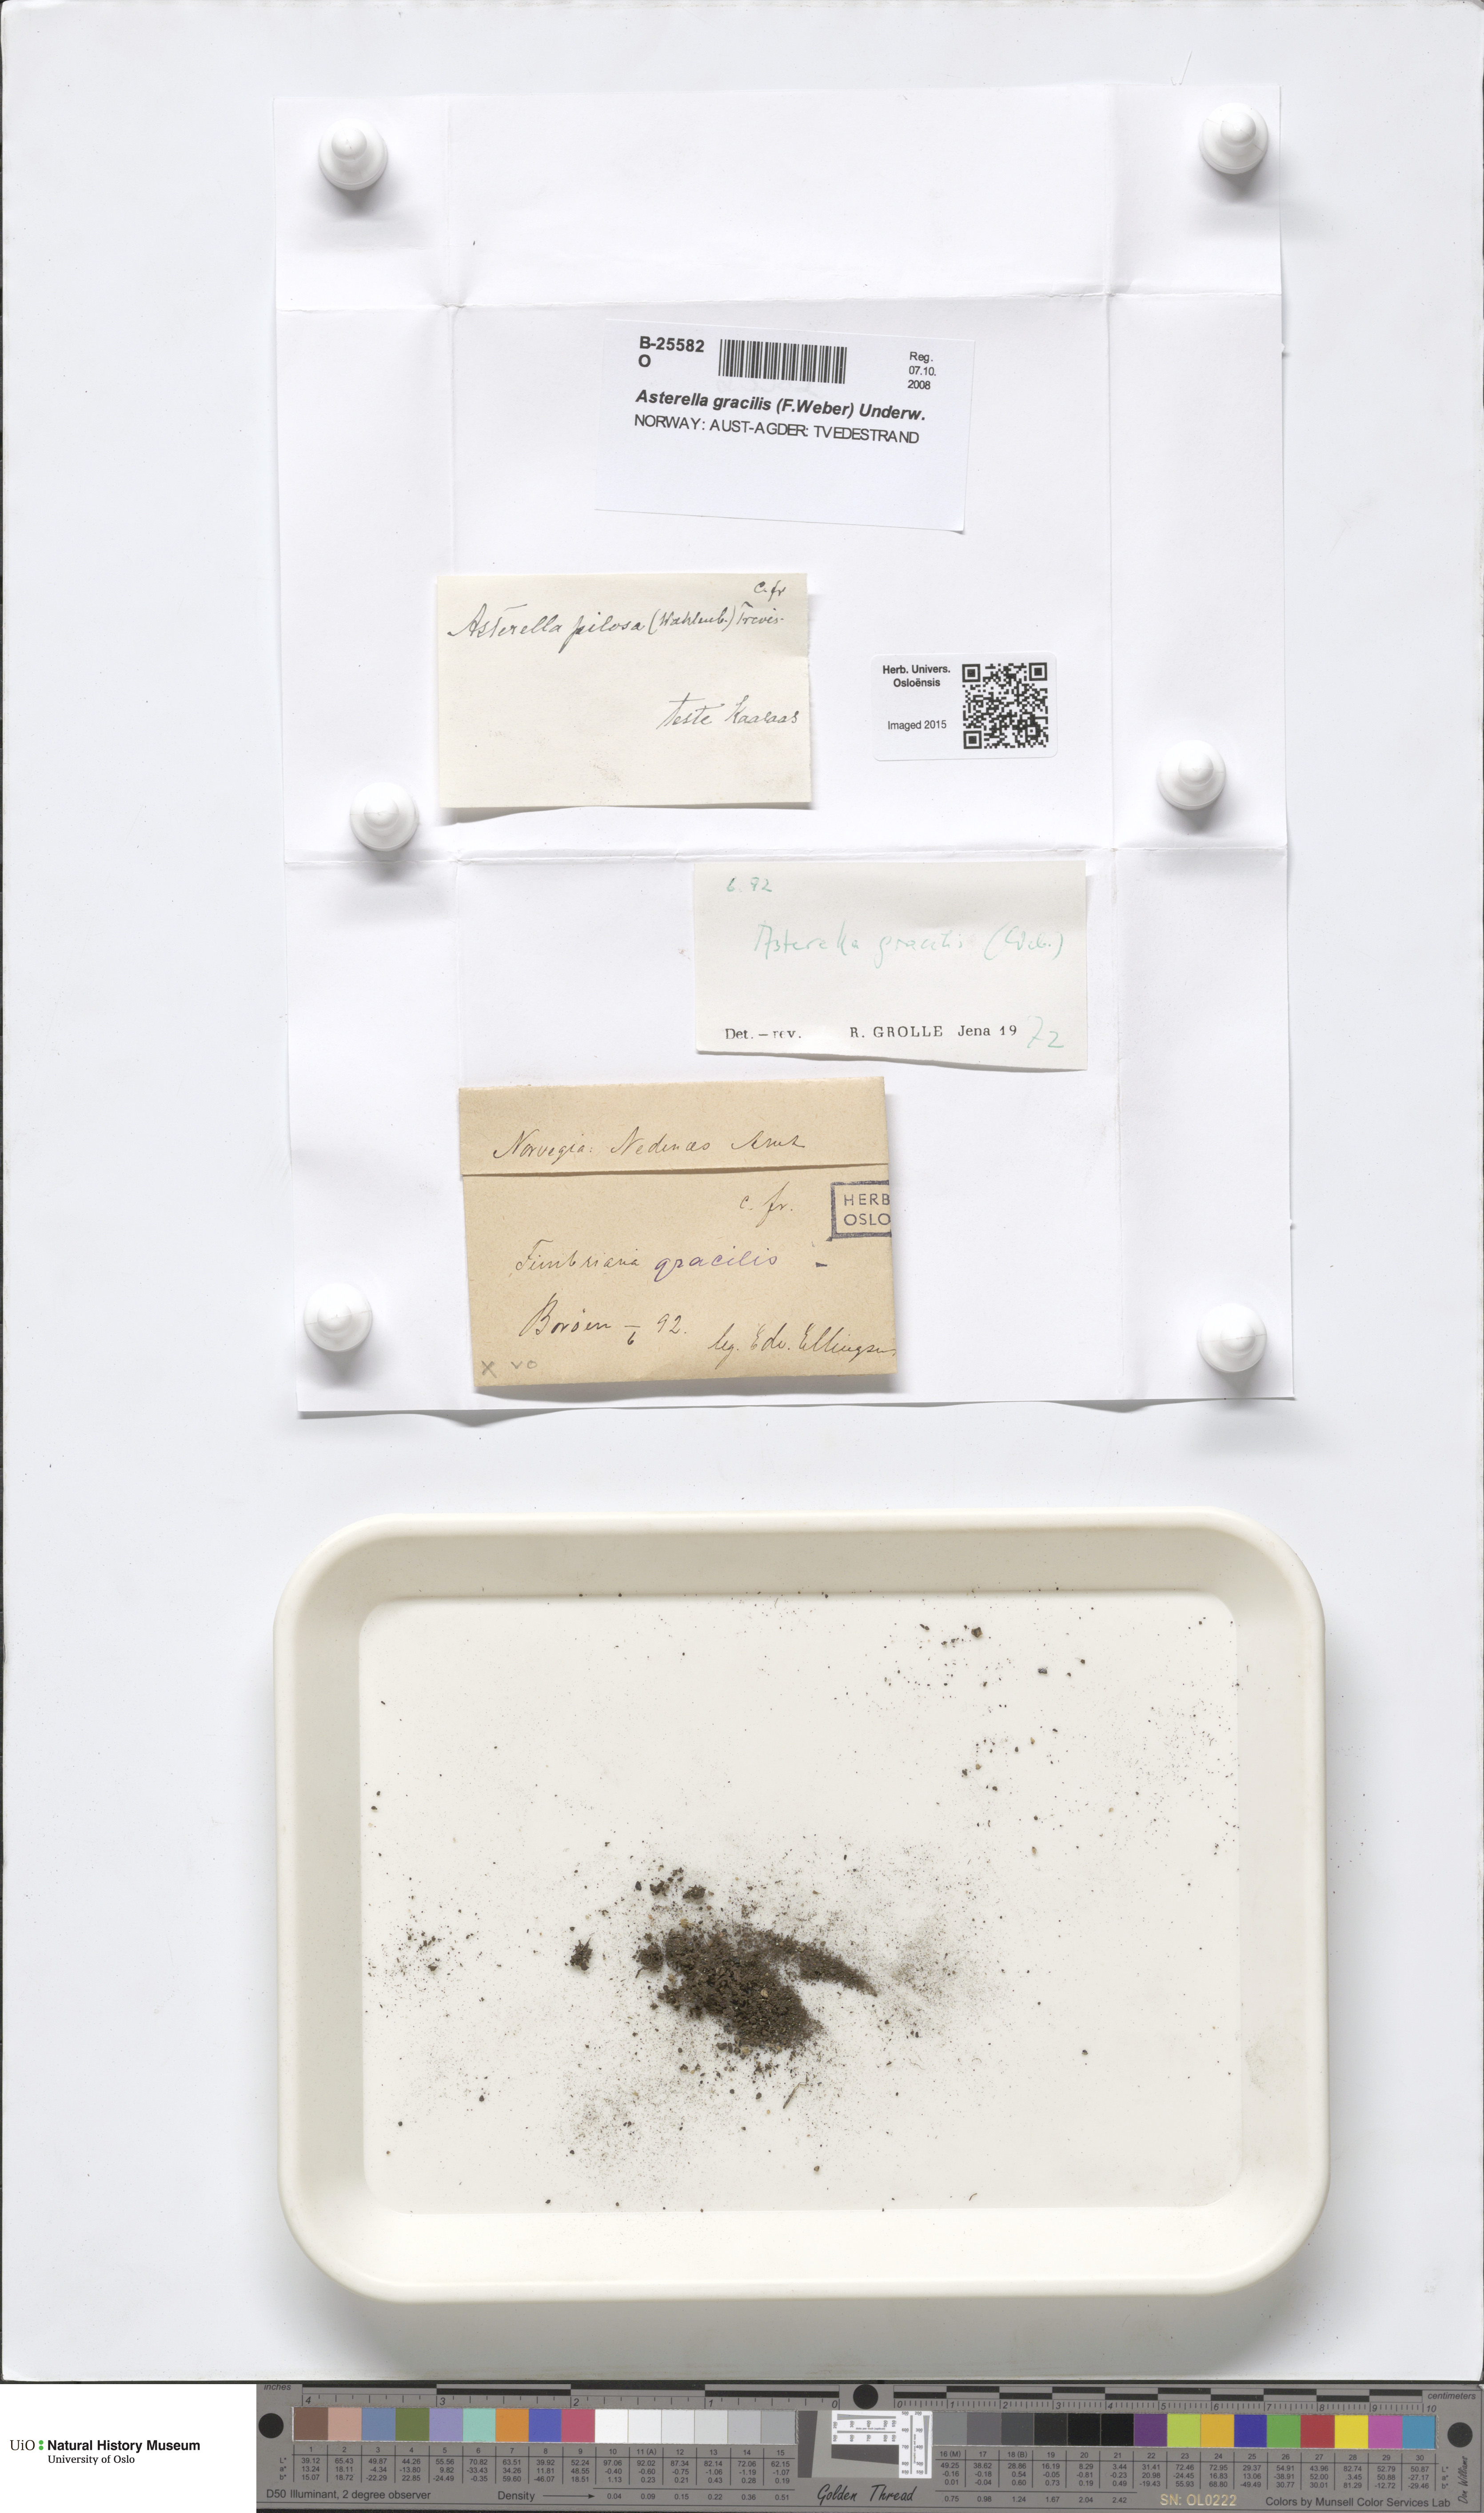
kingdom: Plantae
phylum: Marchantiophyta
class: Marchantiopsida
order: Marchantiales
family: Aytoniaceae
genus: Mannia
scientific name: Mannia gracilis
